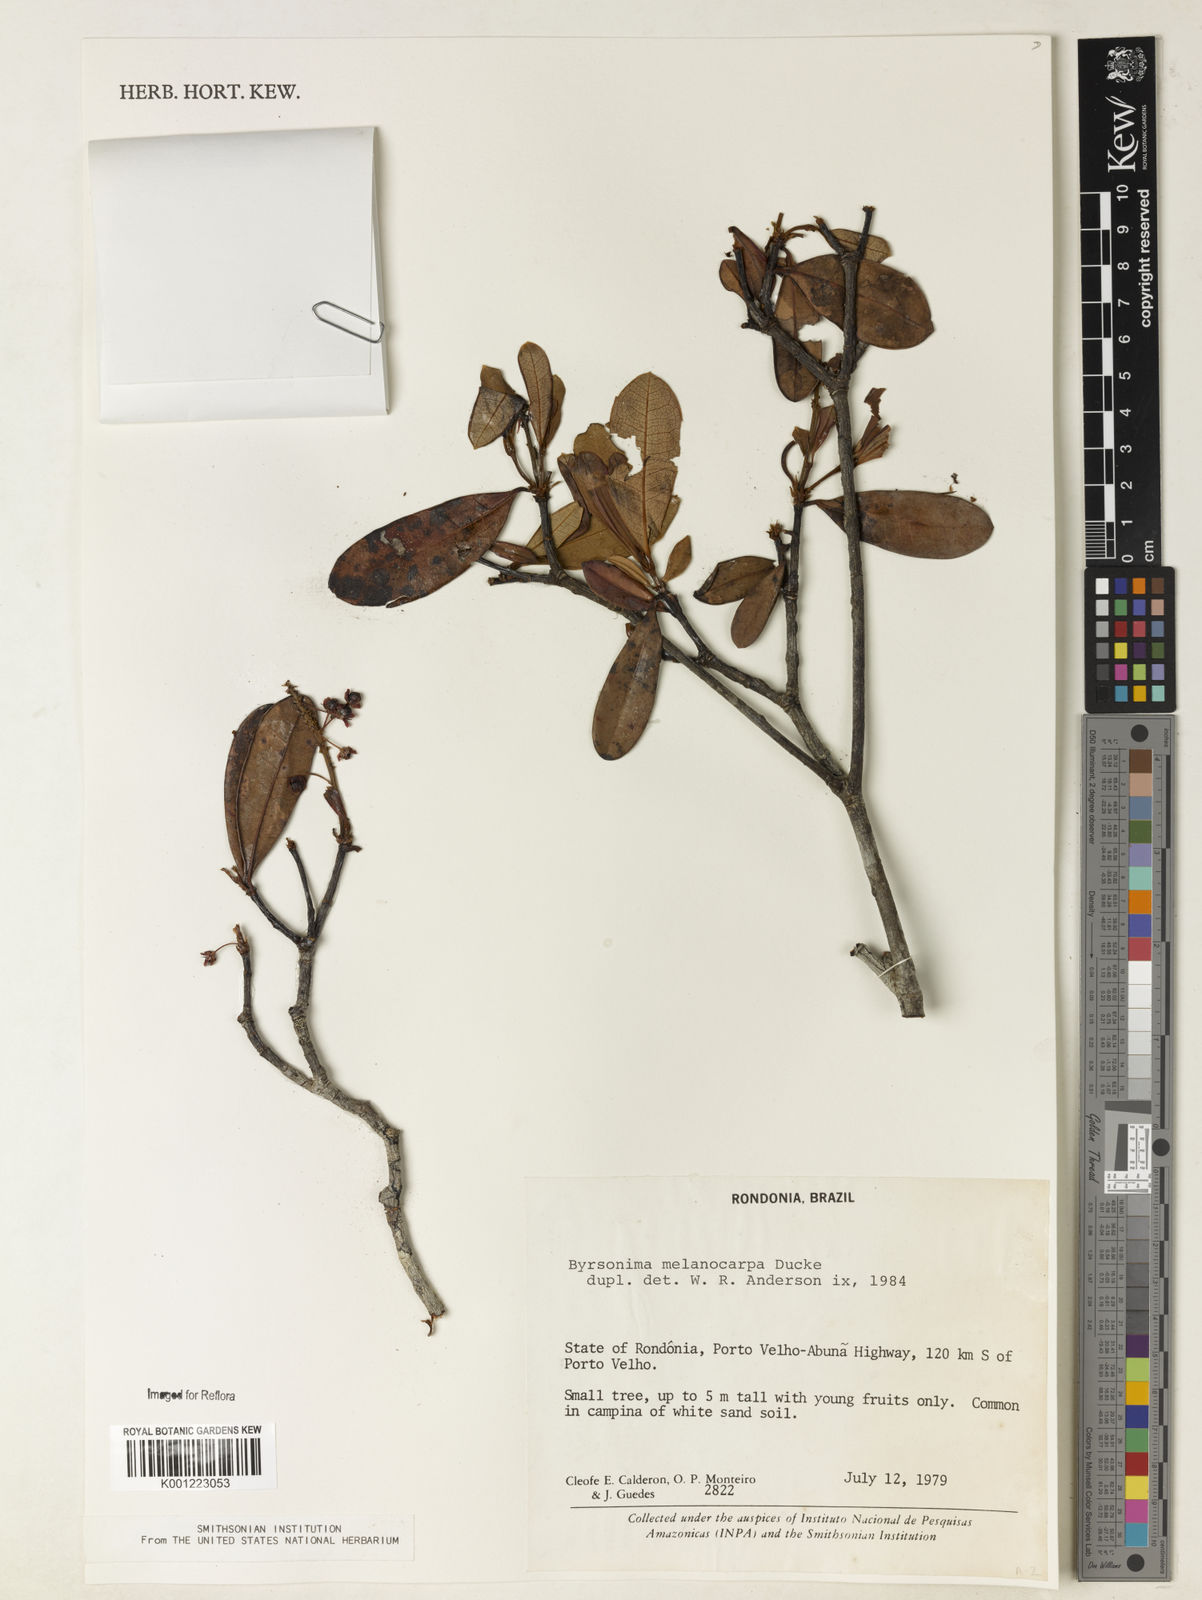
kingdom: Plantae
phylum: Tracheophyta
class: Magnoliopsida
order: Malpighiales
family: Malpighiaceae
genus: Byrsonima
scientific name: Byrsonima melanocarpa
